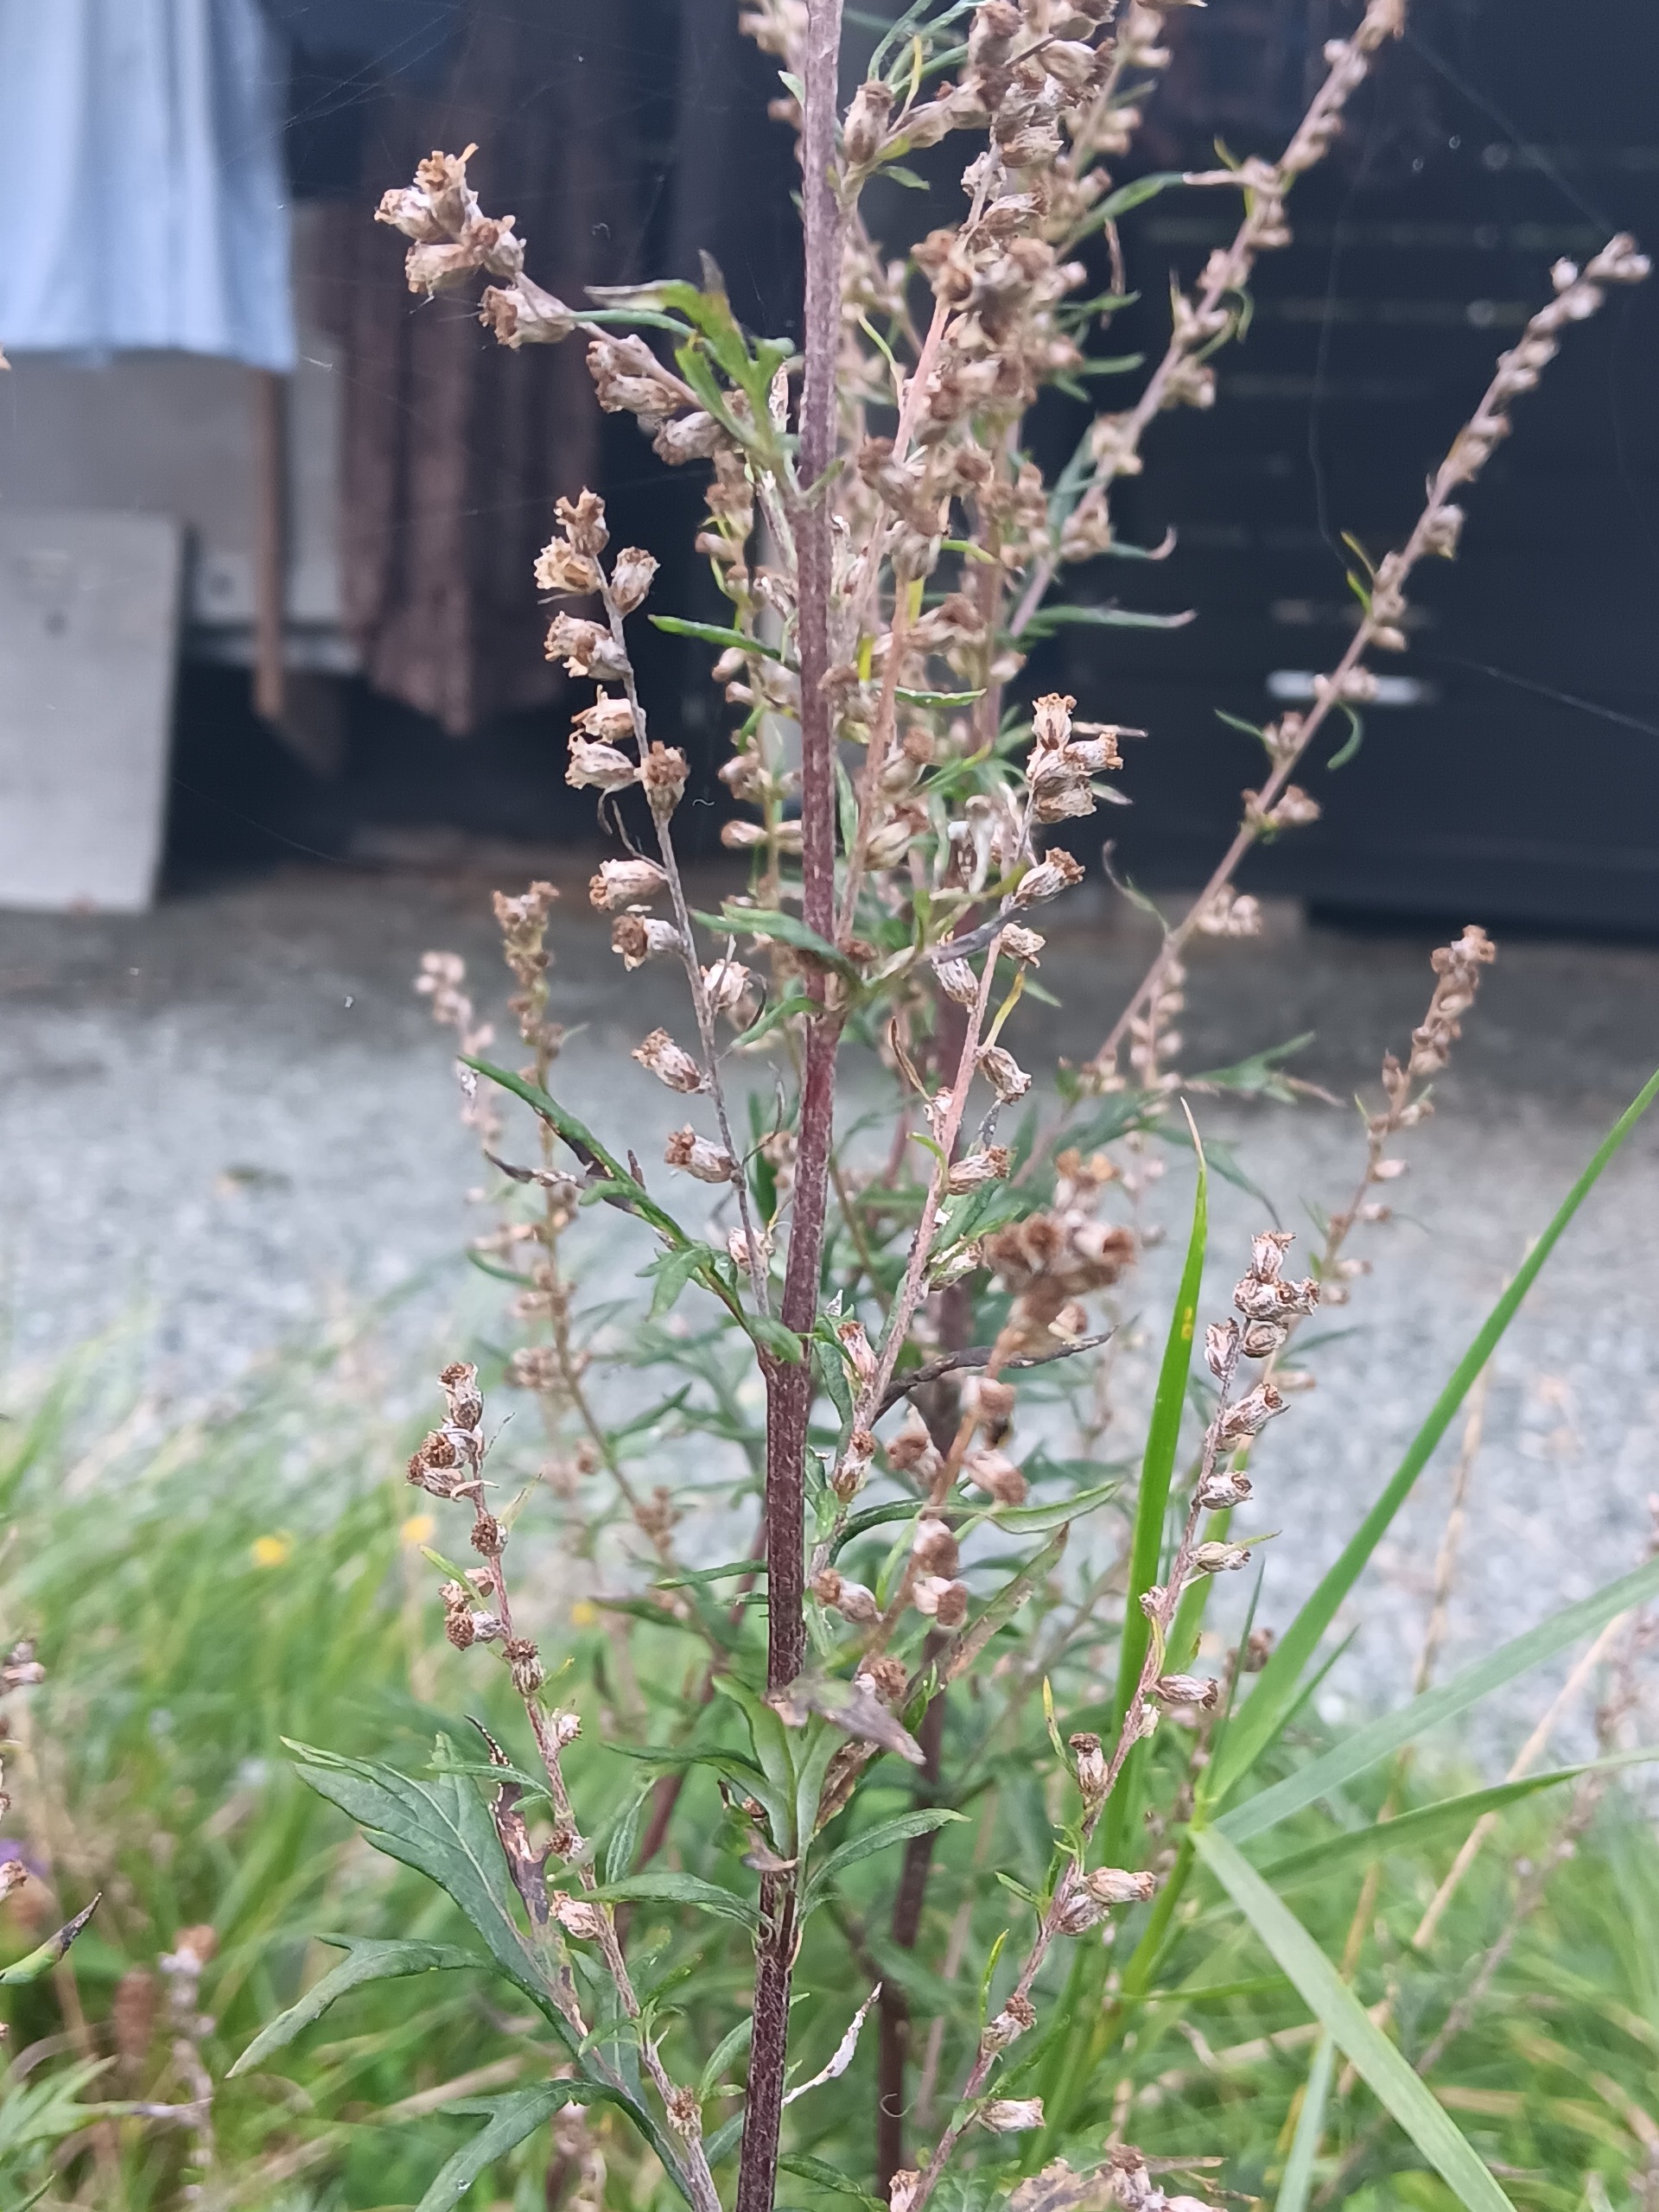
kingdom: Plantae
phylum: Tracheophyta
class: Magnoliopsida
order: Asterales
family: Asteraceae
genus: Artemisia
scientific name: Artemisia vulgaris
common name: Grå-bynke
